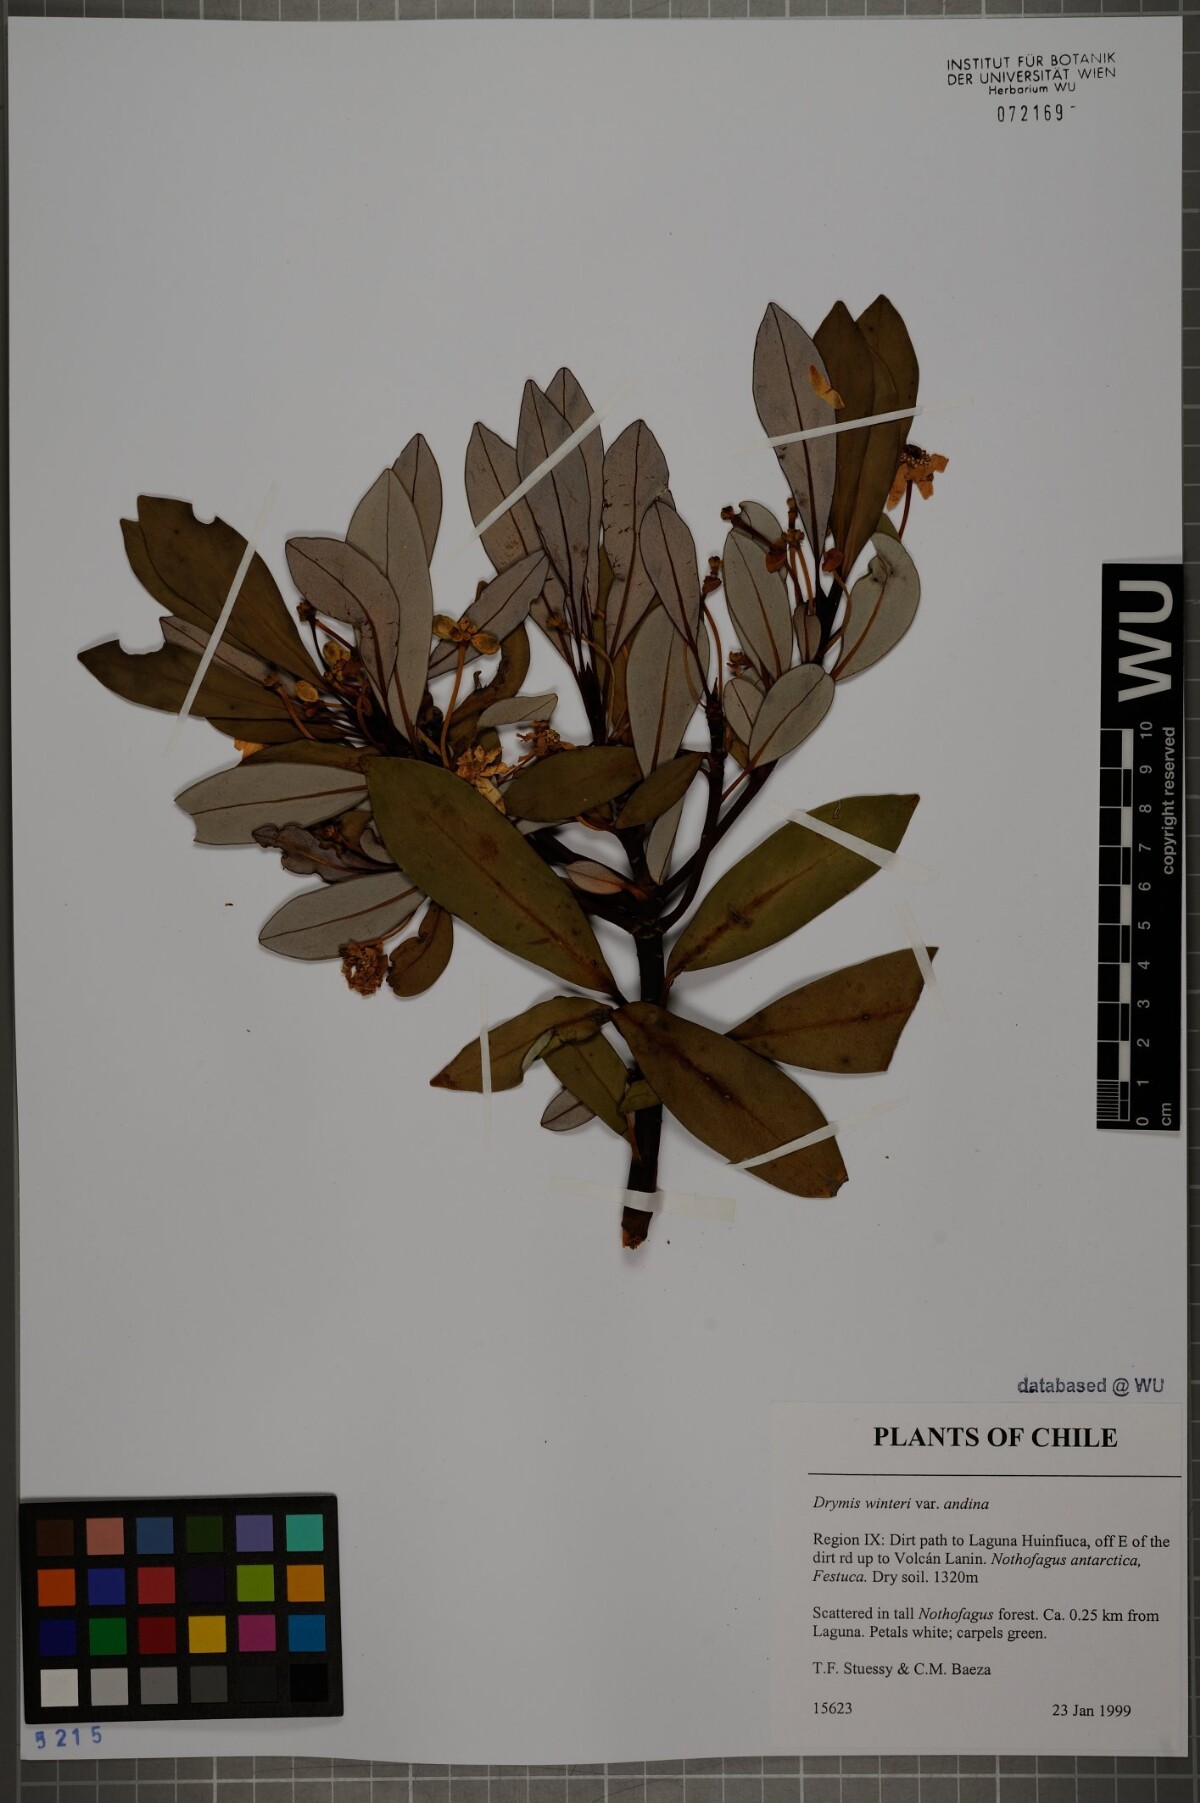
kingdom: Plantae
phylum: Tracheophyta
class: Magnoliopsida
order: Canellales
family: Winteraceae
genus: Drimys
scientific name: Drimys andina
